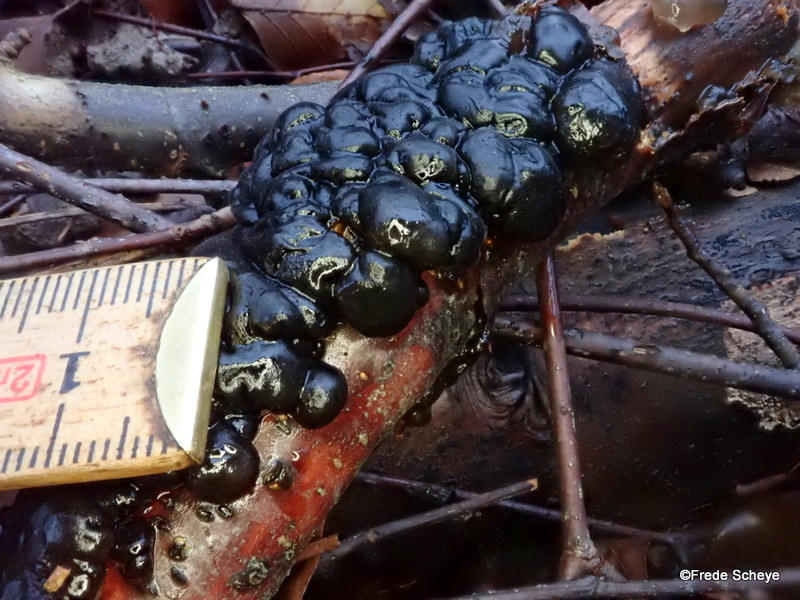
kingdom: Fungi
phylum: Basidiomycota
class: Agaricomycetes
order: Auriculariales
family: Auriculariaceae
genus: Exidia
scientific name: Exidia nigricans
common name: almindelig bævretop
